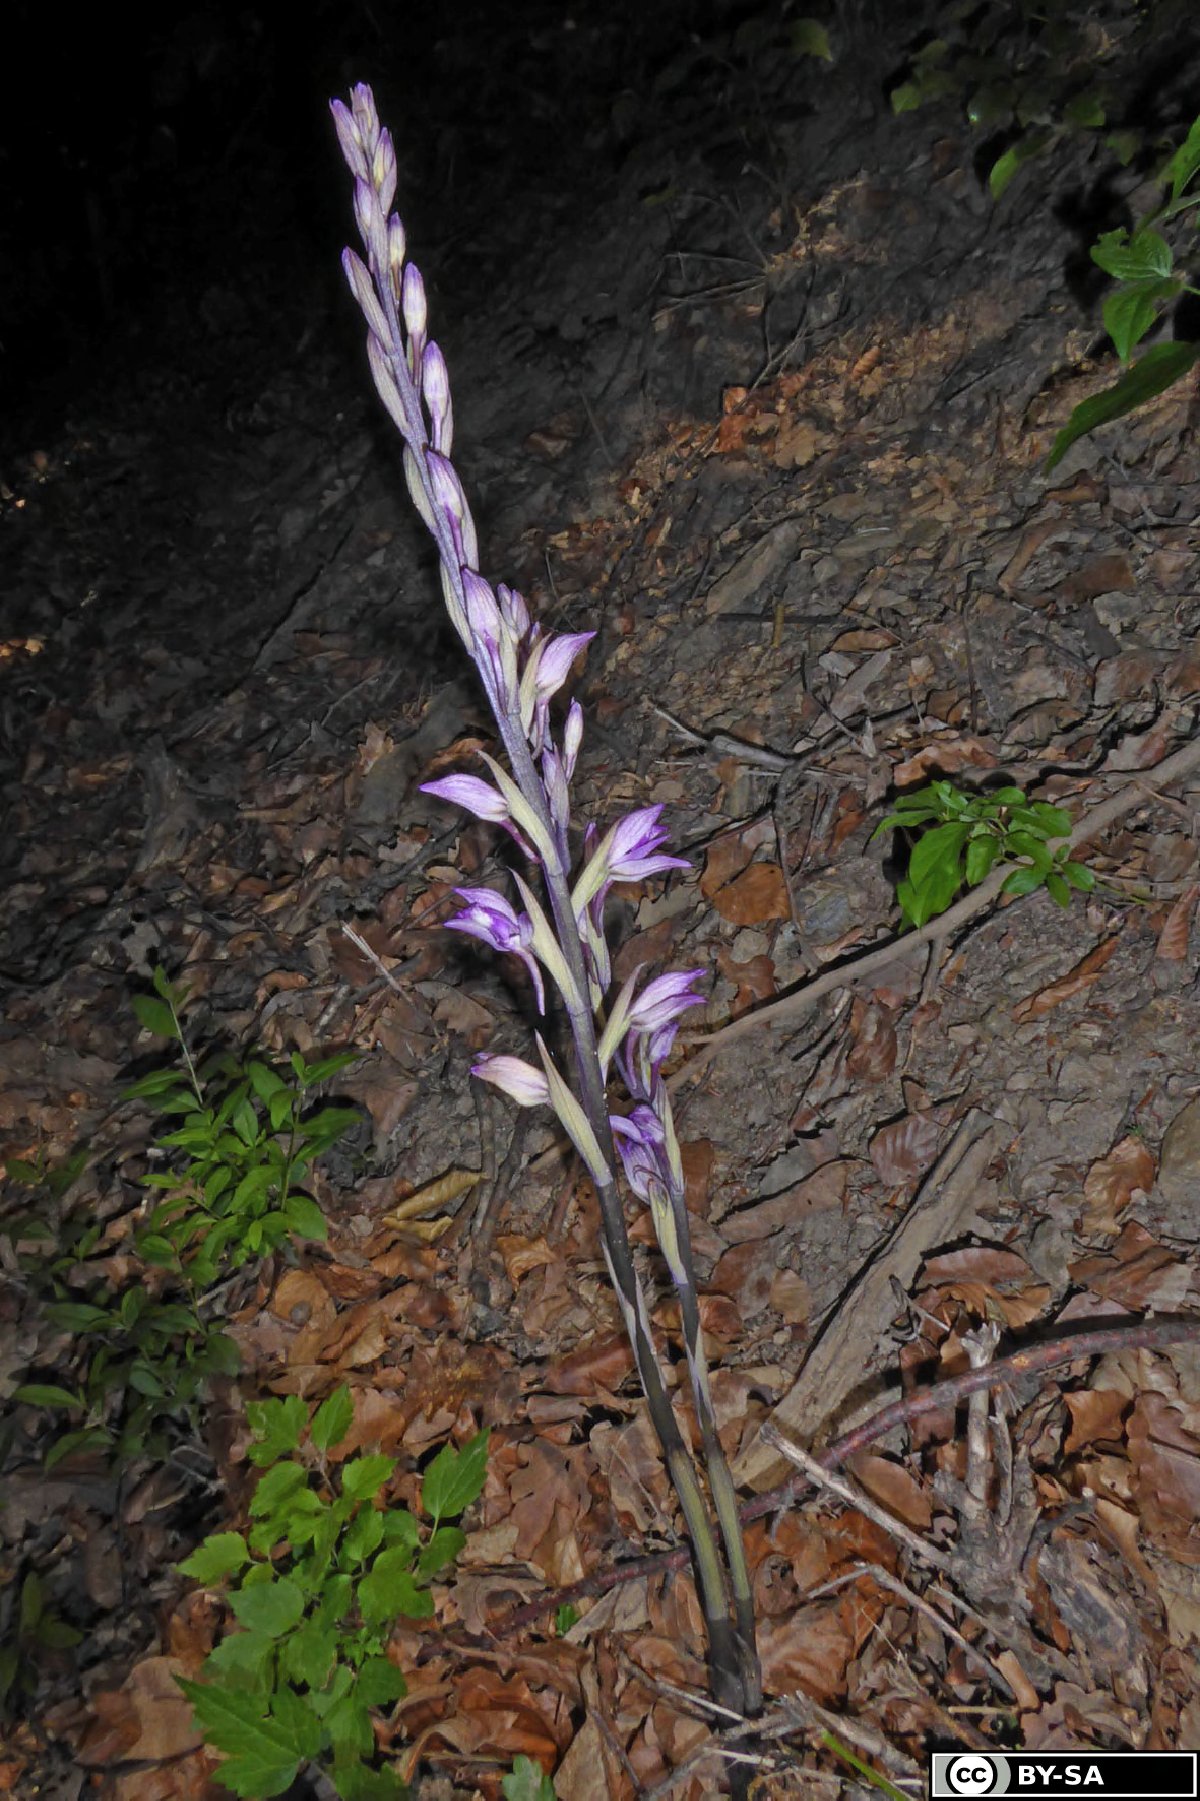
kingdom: Plantae
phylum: Tracheophyta
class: Liliopsida
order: Asparagales
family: Orchidaceae
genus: Limodorum
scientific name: Limodorum abortivum
